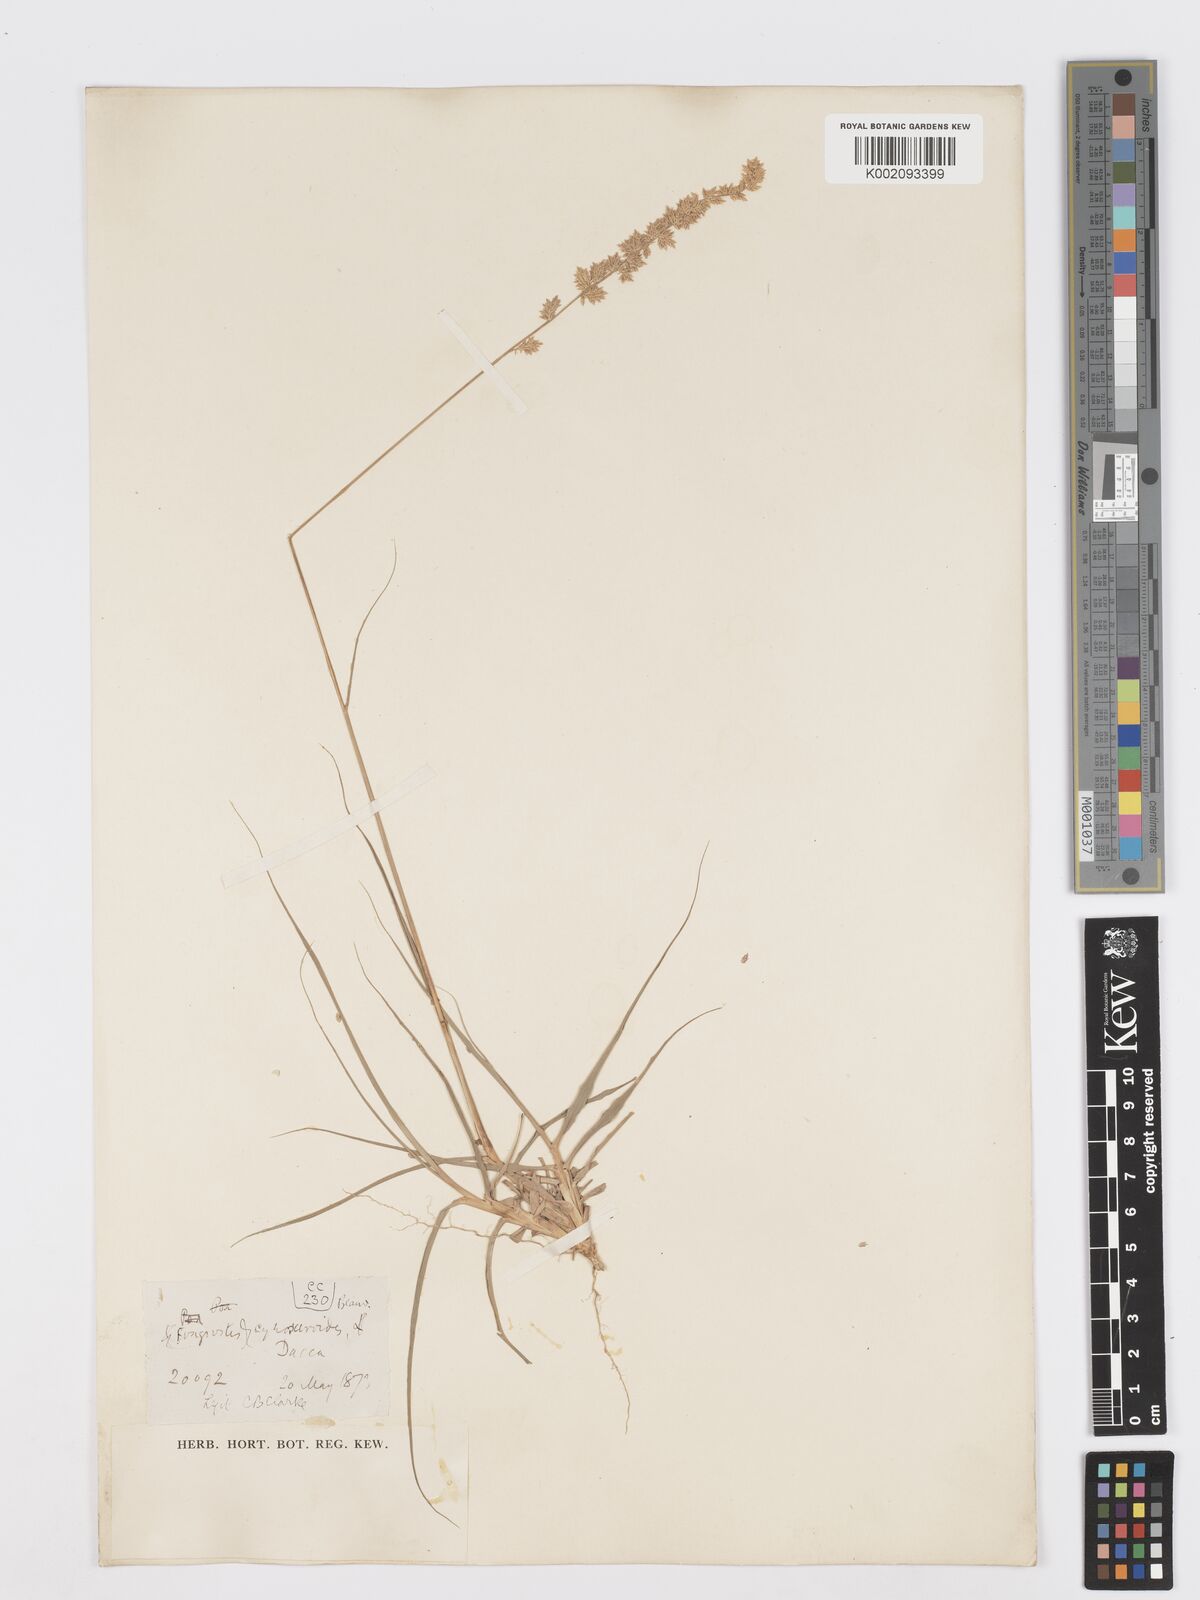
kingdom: Plantae
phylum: Tracheophyta
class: Liliopsida
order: Poales
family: Poaceae
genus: Desmostachya
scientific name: Desmostachya bipinnata
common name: Crowfoot grass
